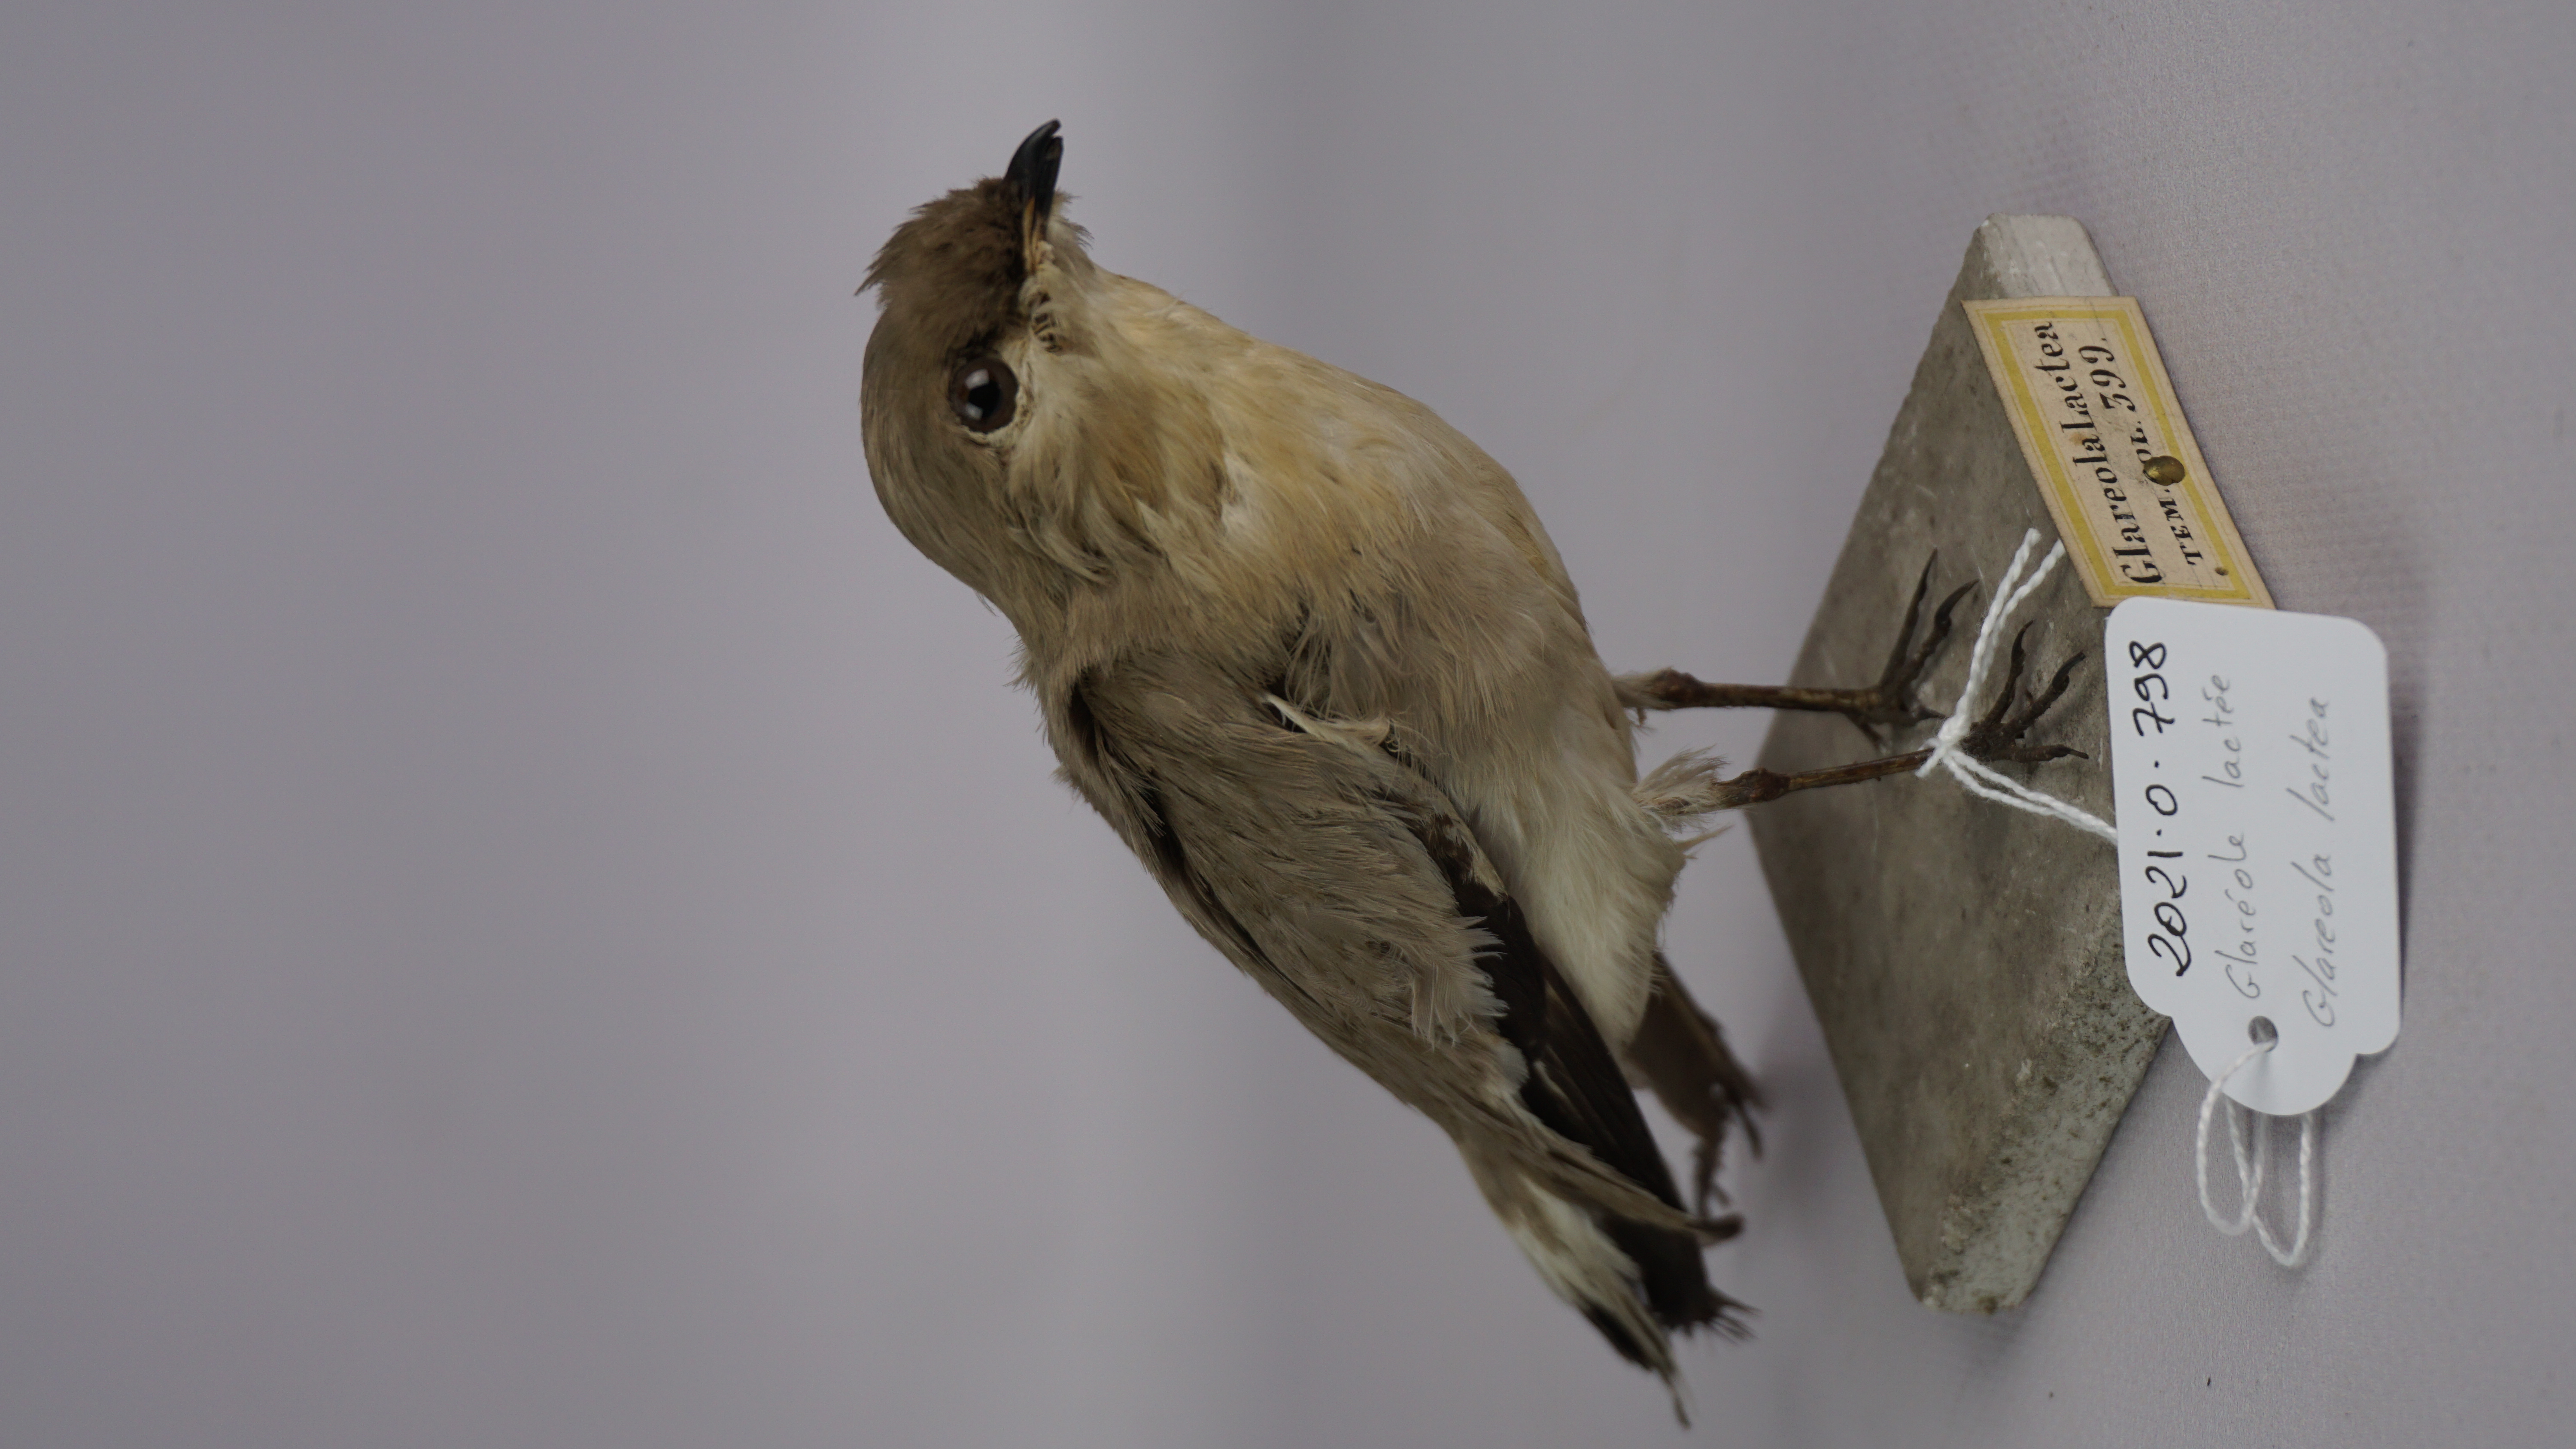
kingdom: Animalia
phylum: Chordata
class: Aves
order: Charadriiformes
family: Glareolidae
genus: Glareola
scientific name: Glareola lactea
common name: Small pratincole
